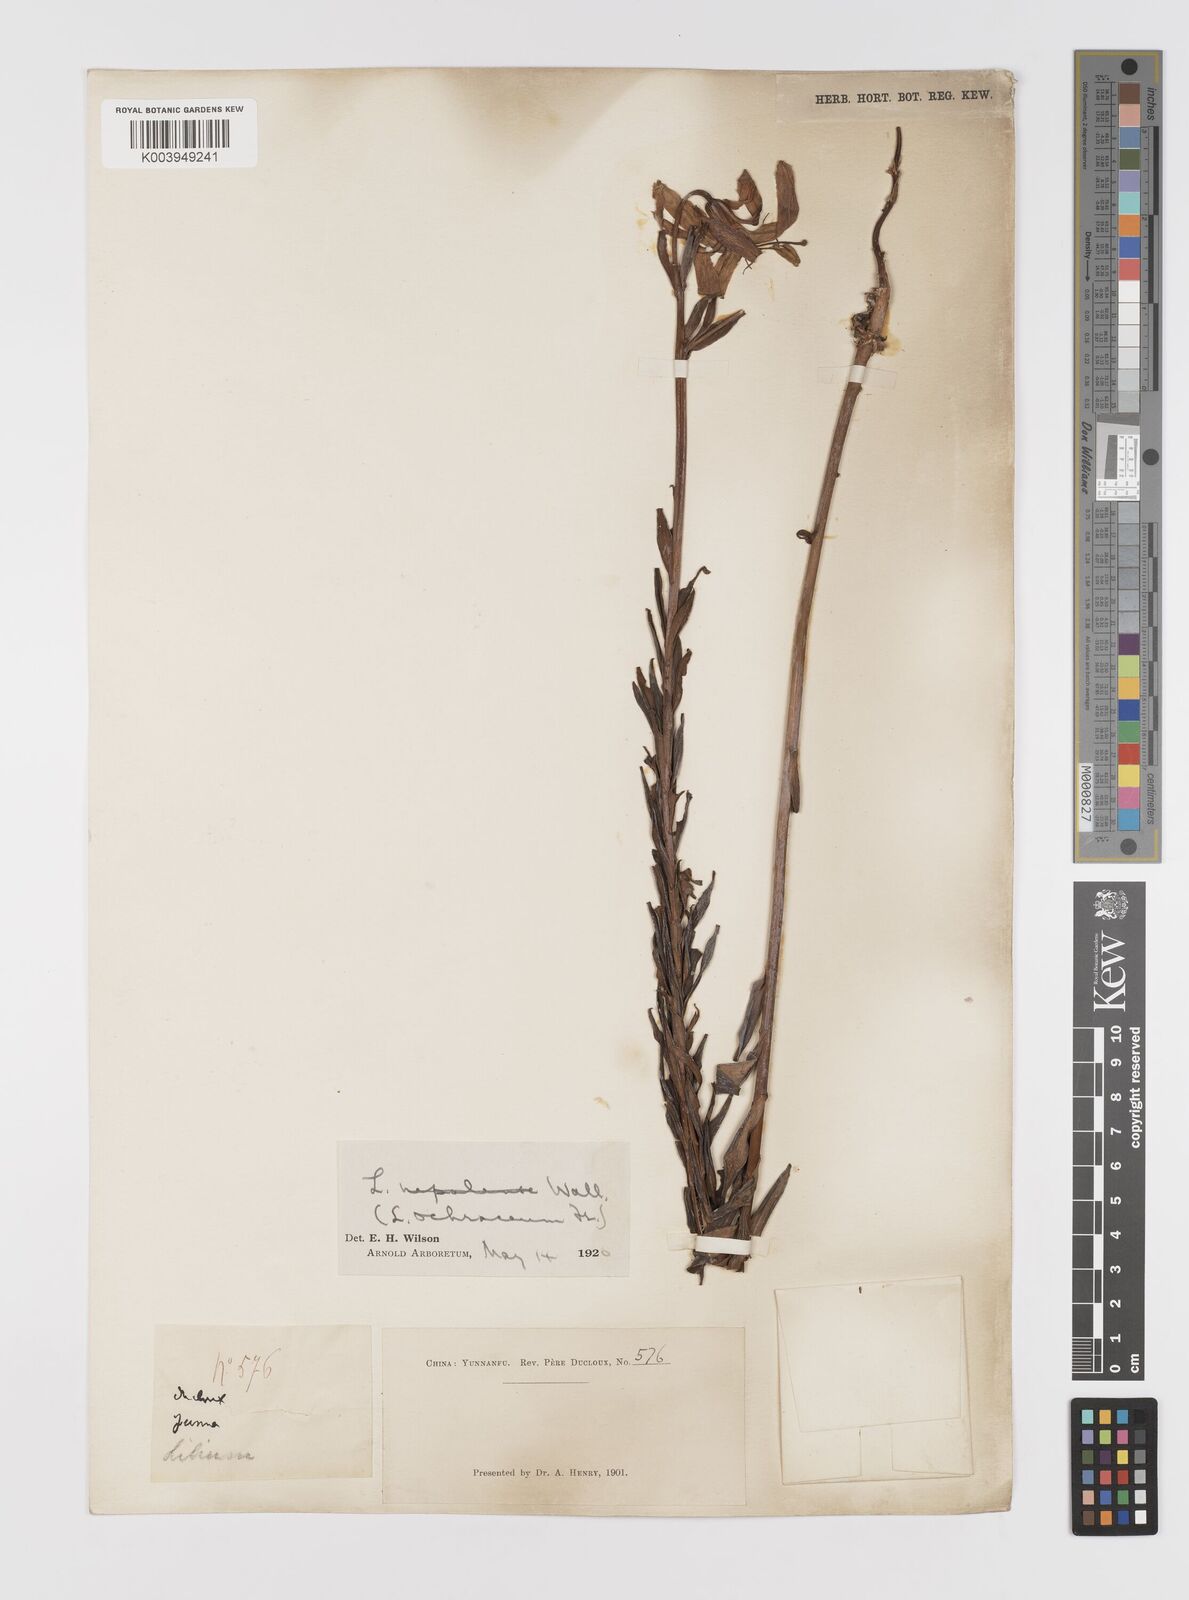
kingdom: Plantae
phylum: Tracheophyta
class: Liliopsida
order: Liliales
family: Liliaceae
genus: Lilium
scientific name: Lilium primulinum
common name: Ochre lily
